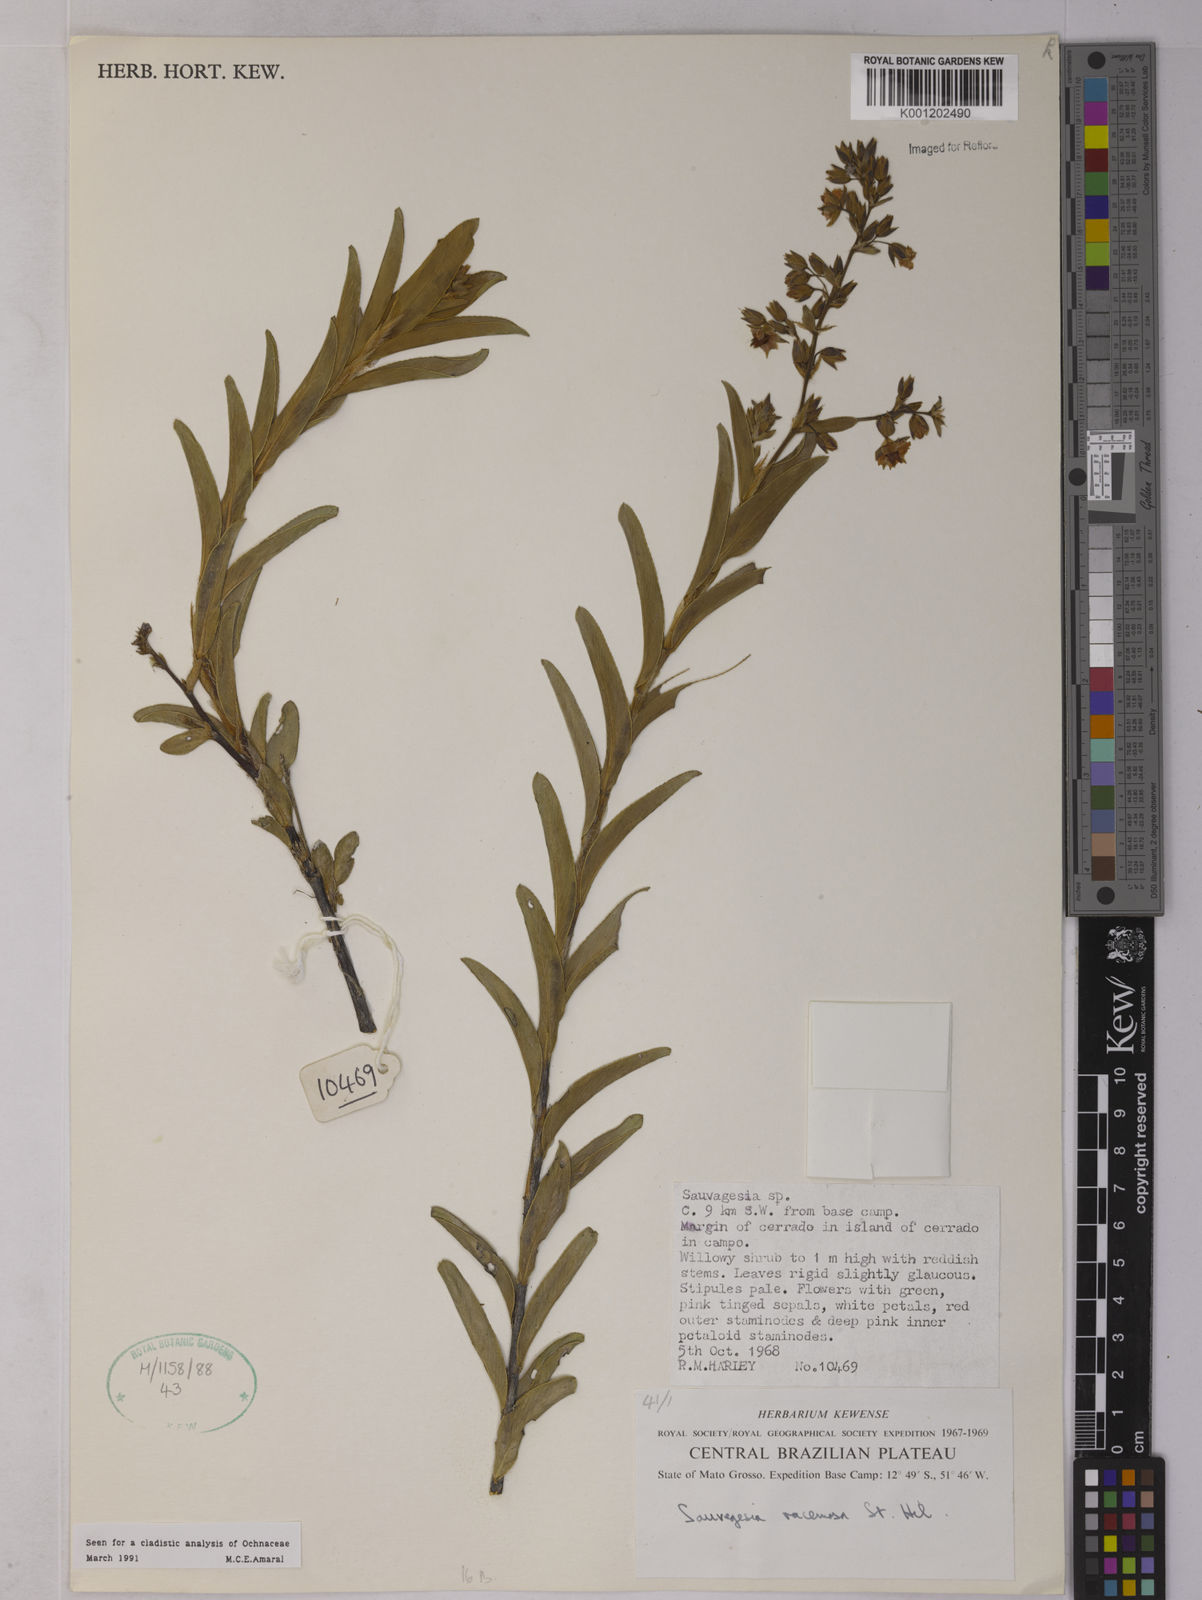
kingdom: Plantae
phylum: Tracheophyta
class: Magnoliopsida
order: Malpighiales
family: Ochnaceae
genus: Sauvagesia
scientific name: Sauvagesia racemosa
